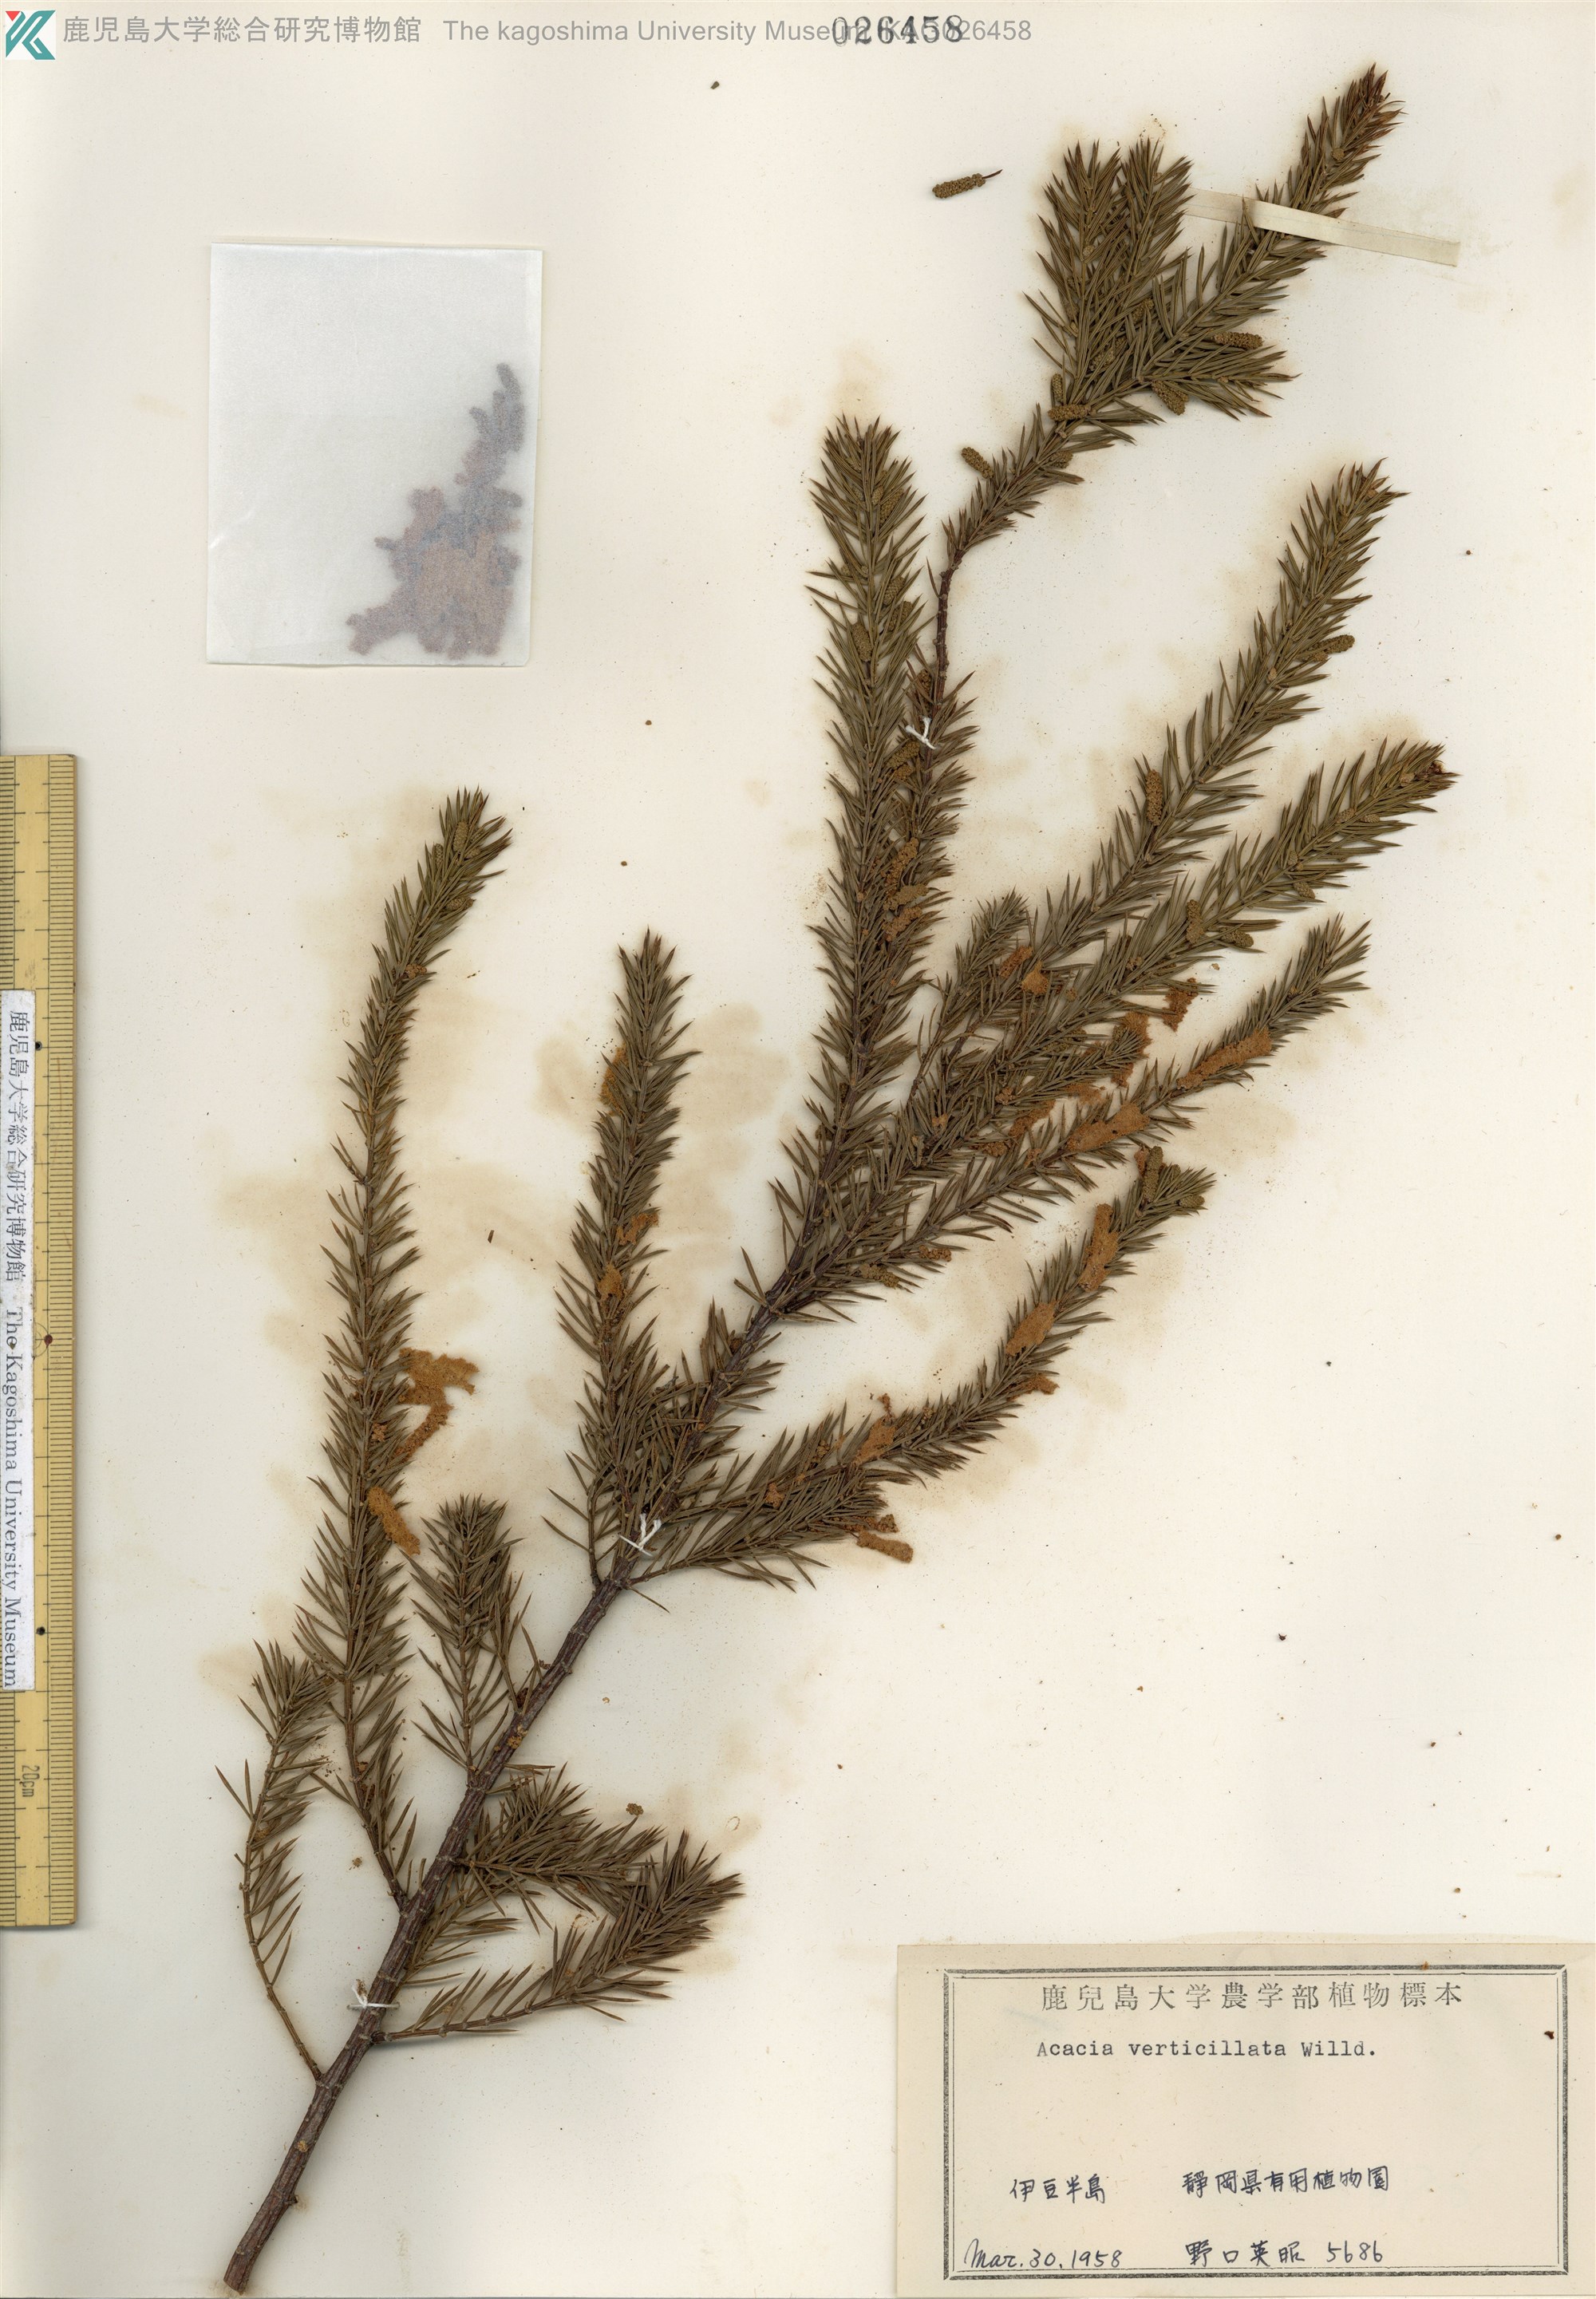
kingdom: Plantae
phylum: Tracheophyta
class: Magnoliopsida
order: Fabales
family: Fabaceae
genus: Acacia
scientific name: Acacia verticillata
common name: Prickly moses
